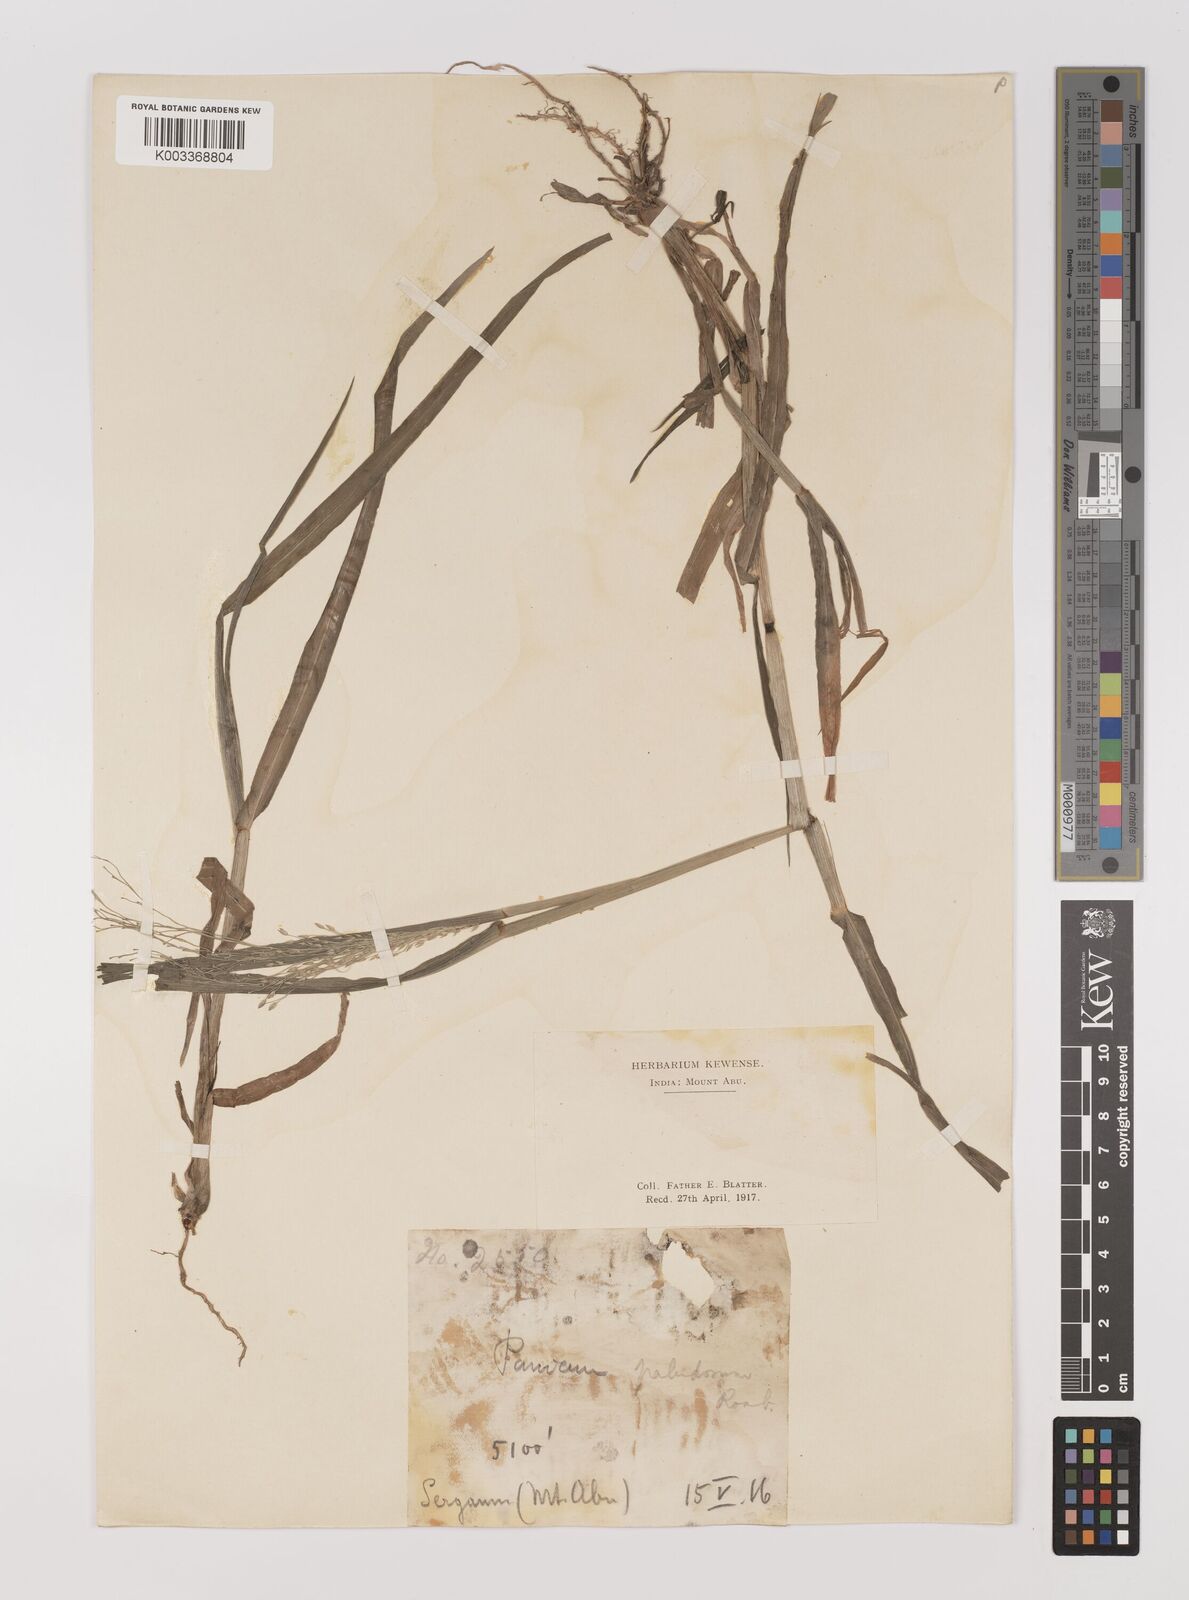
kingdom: Plantae
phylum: Tracheophyta
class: Liliopsida
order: Poales
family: Poaceae
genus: Louisiella
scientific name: Louisiella paludosa
